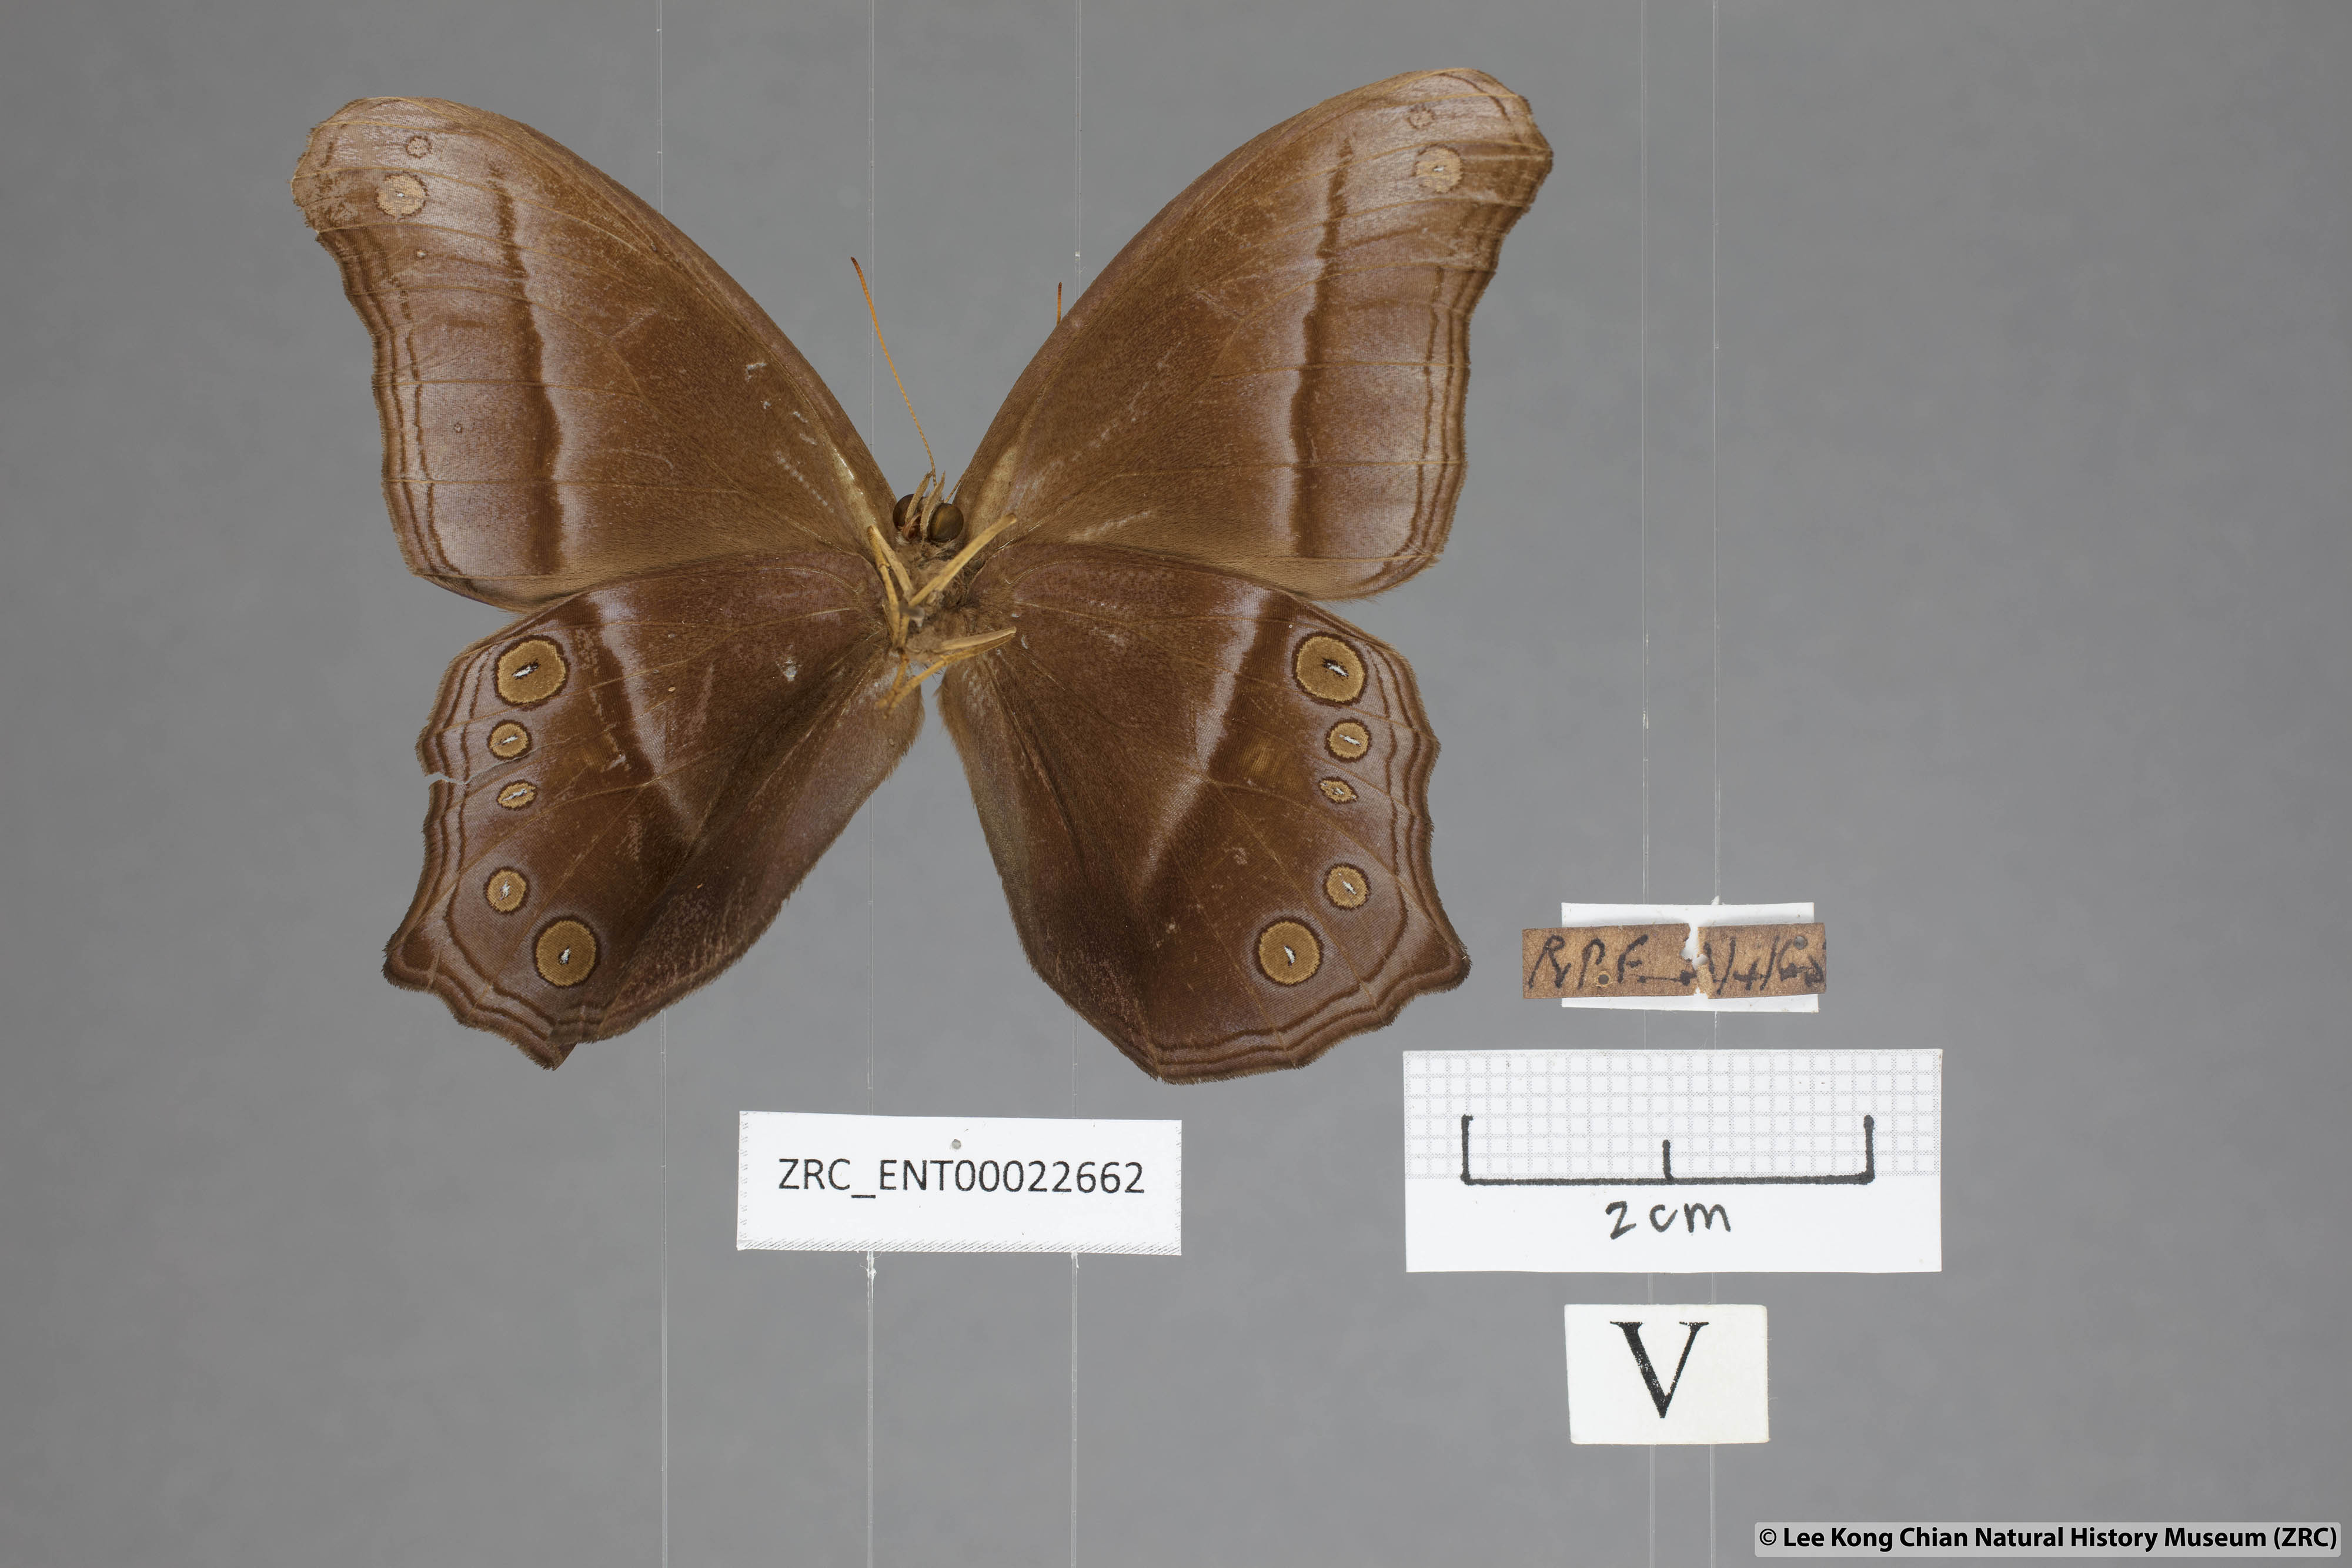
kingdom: Animalia
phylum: Arthropoda
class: Insecta
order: Lepidoptera
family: Nymphalidae
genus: Coelites
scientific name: Coelites epiminthia
